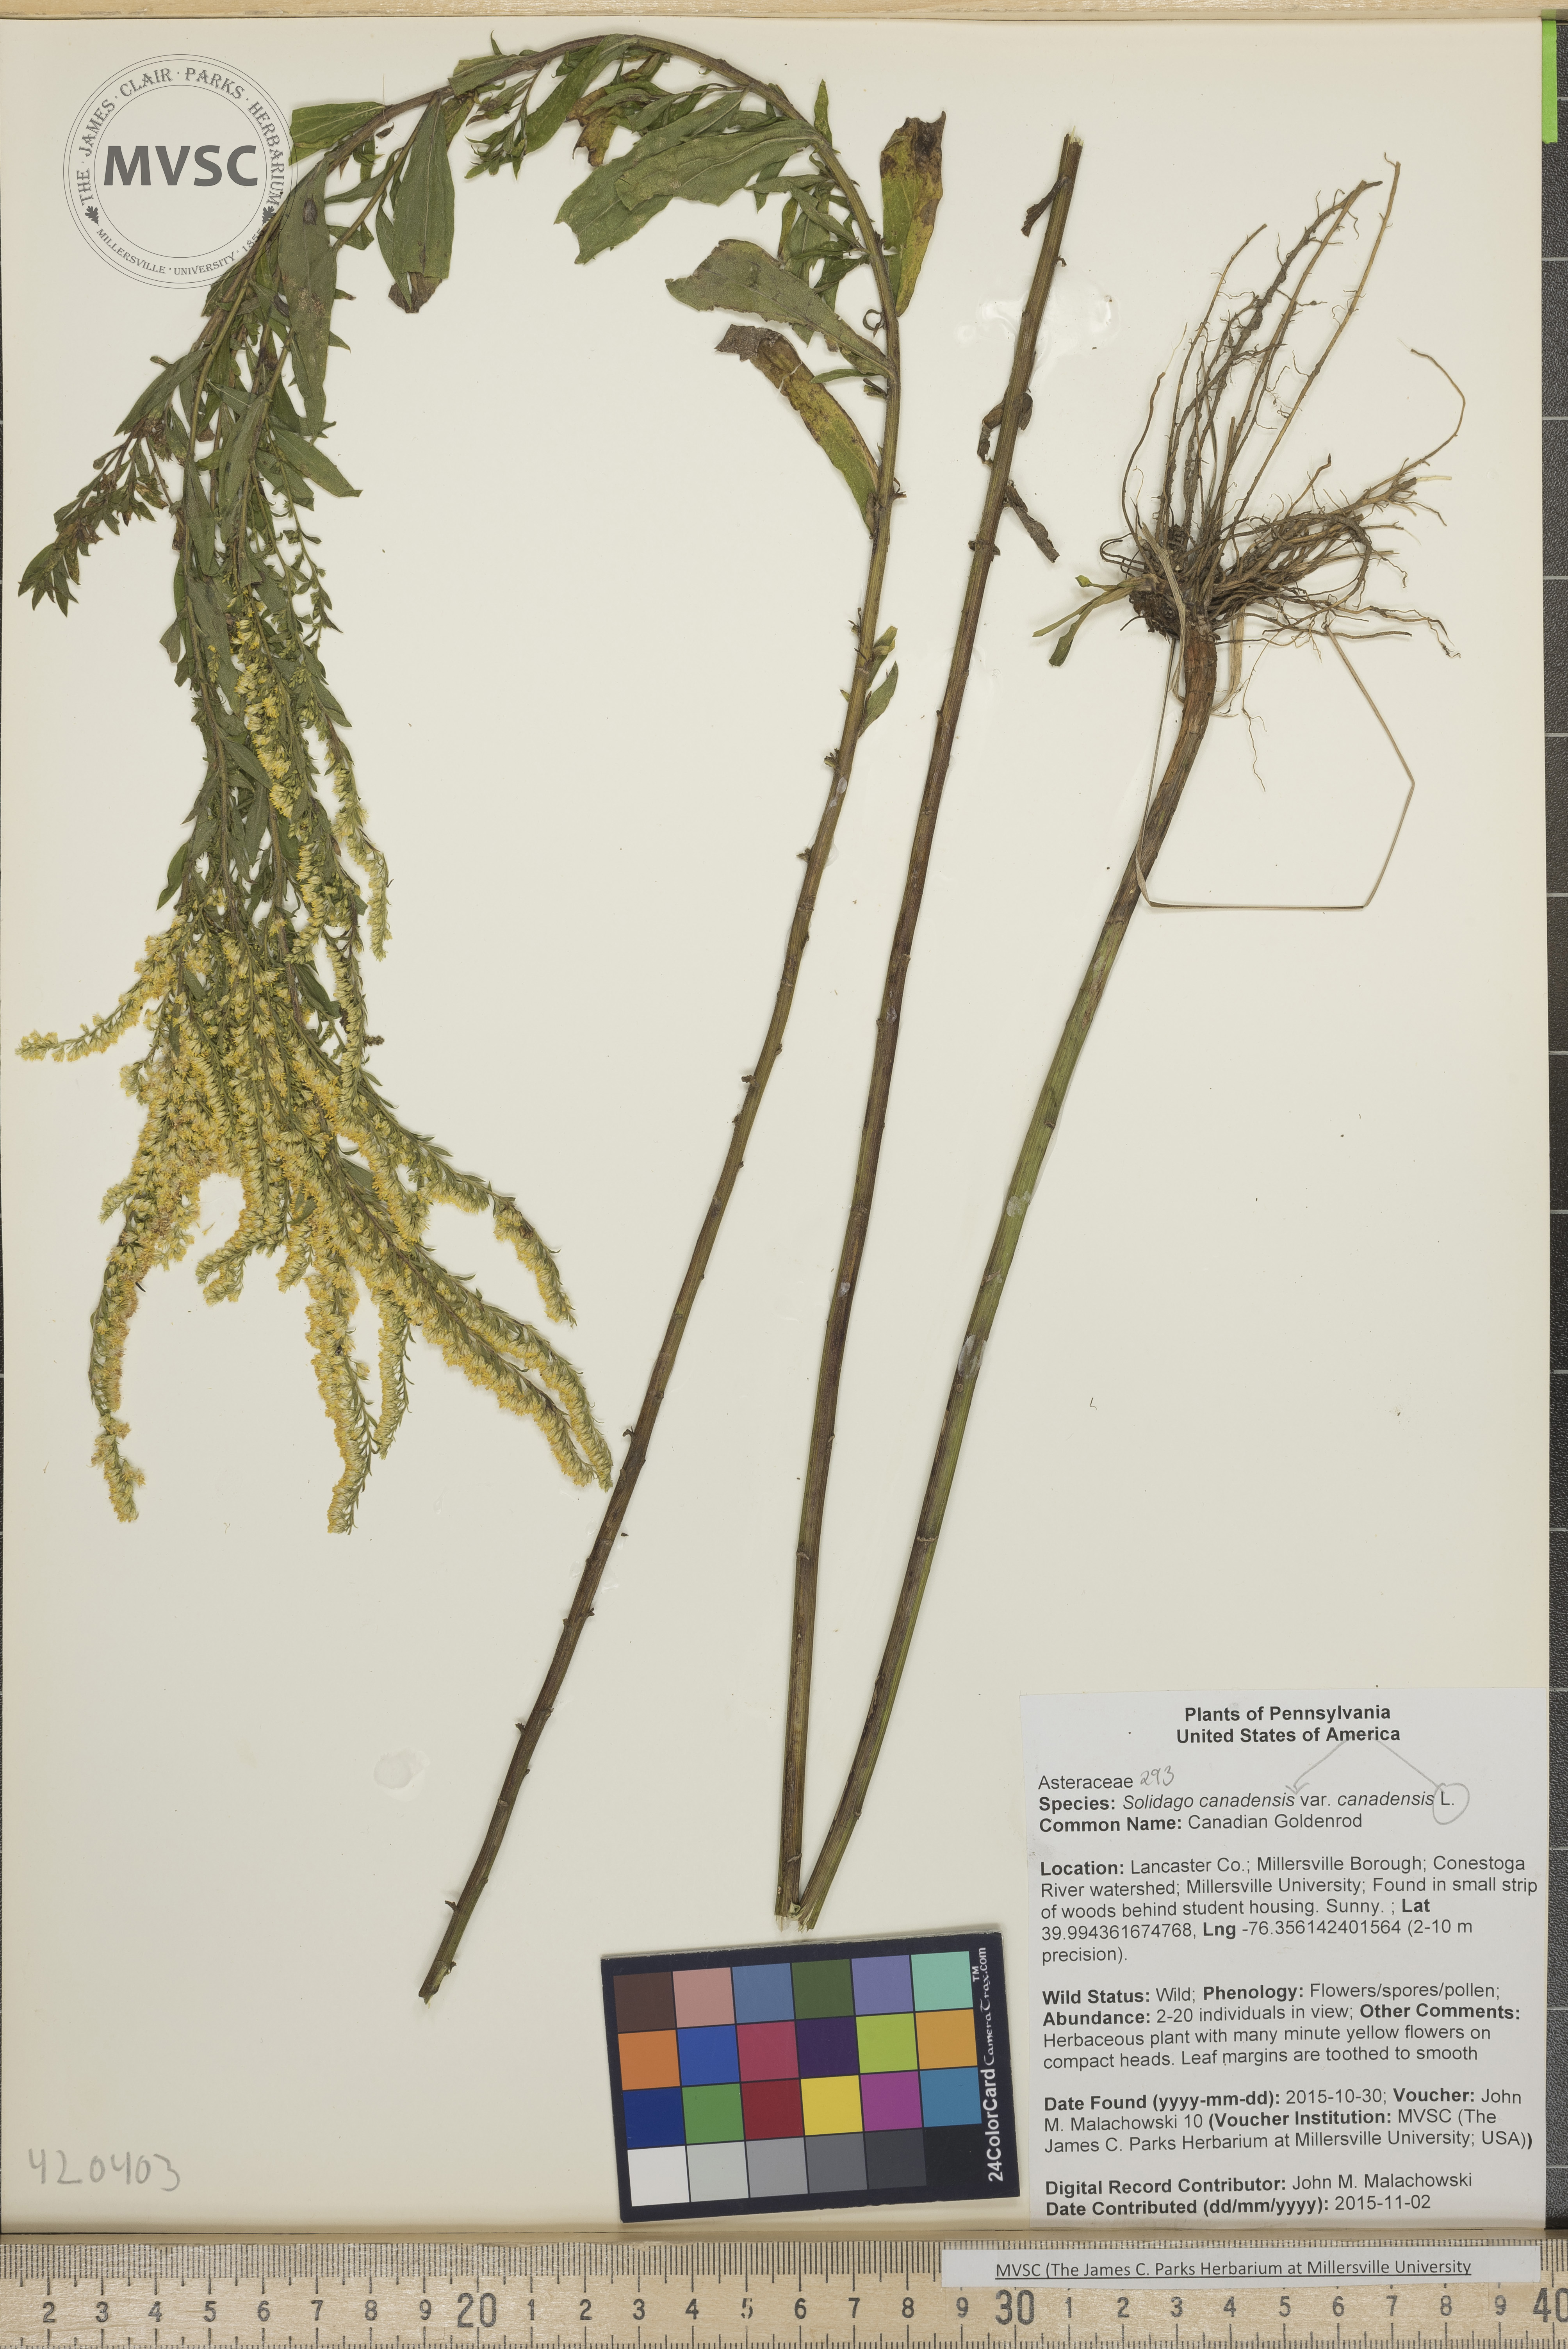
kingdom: Plantae
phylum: Tracheophyta
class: Magnoliopsida
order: Asterales
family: Asteraceae
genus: Solidago
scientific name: Solidago canadensis
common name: Canadian Goldenrod
